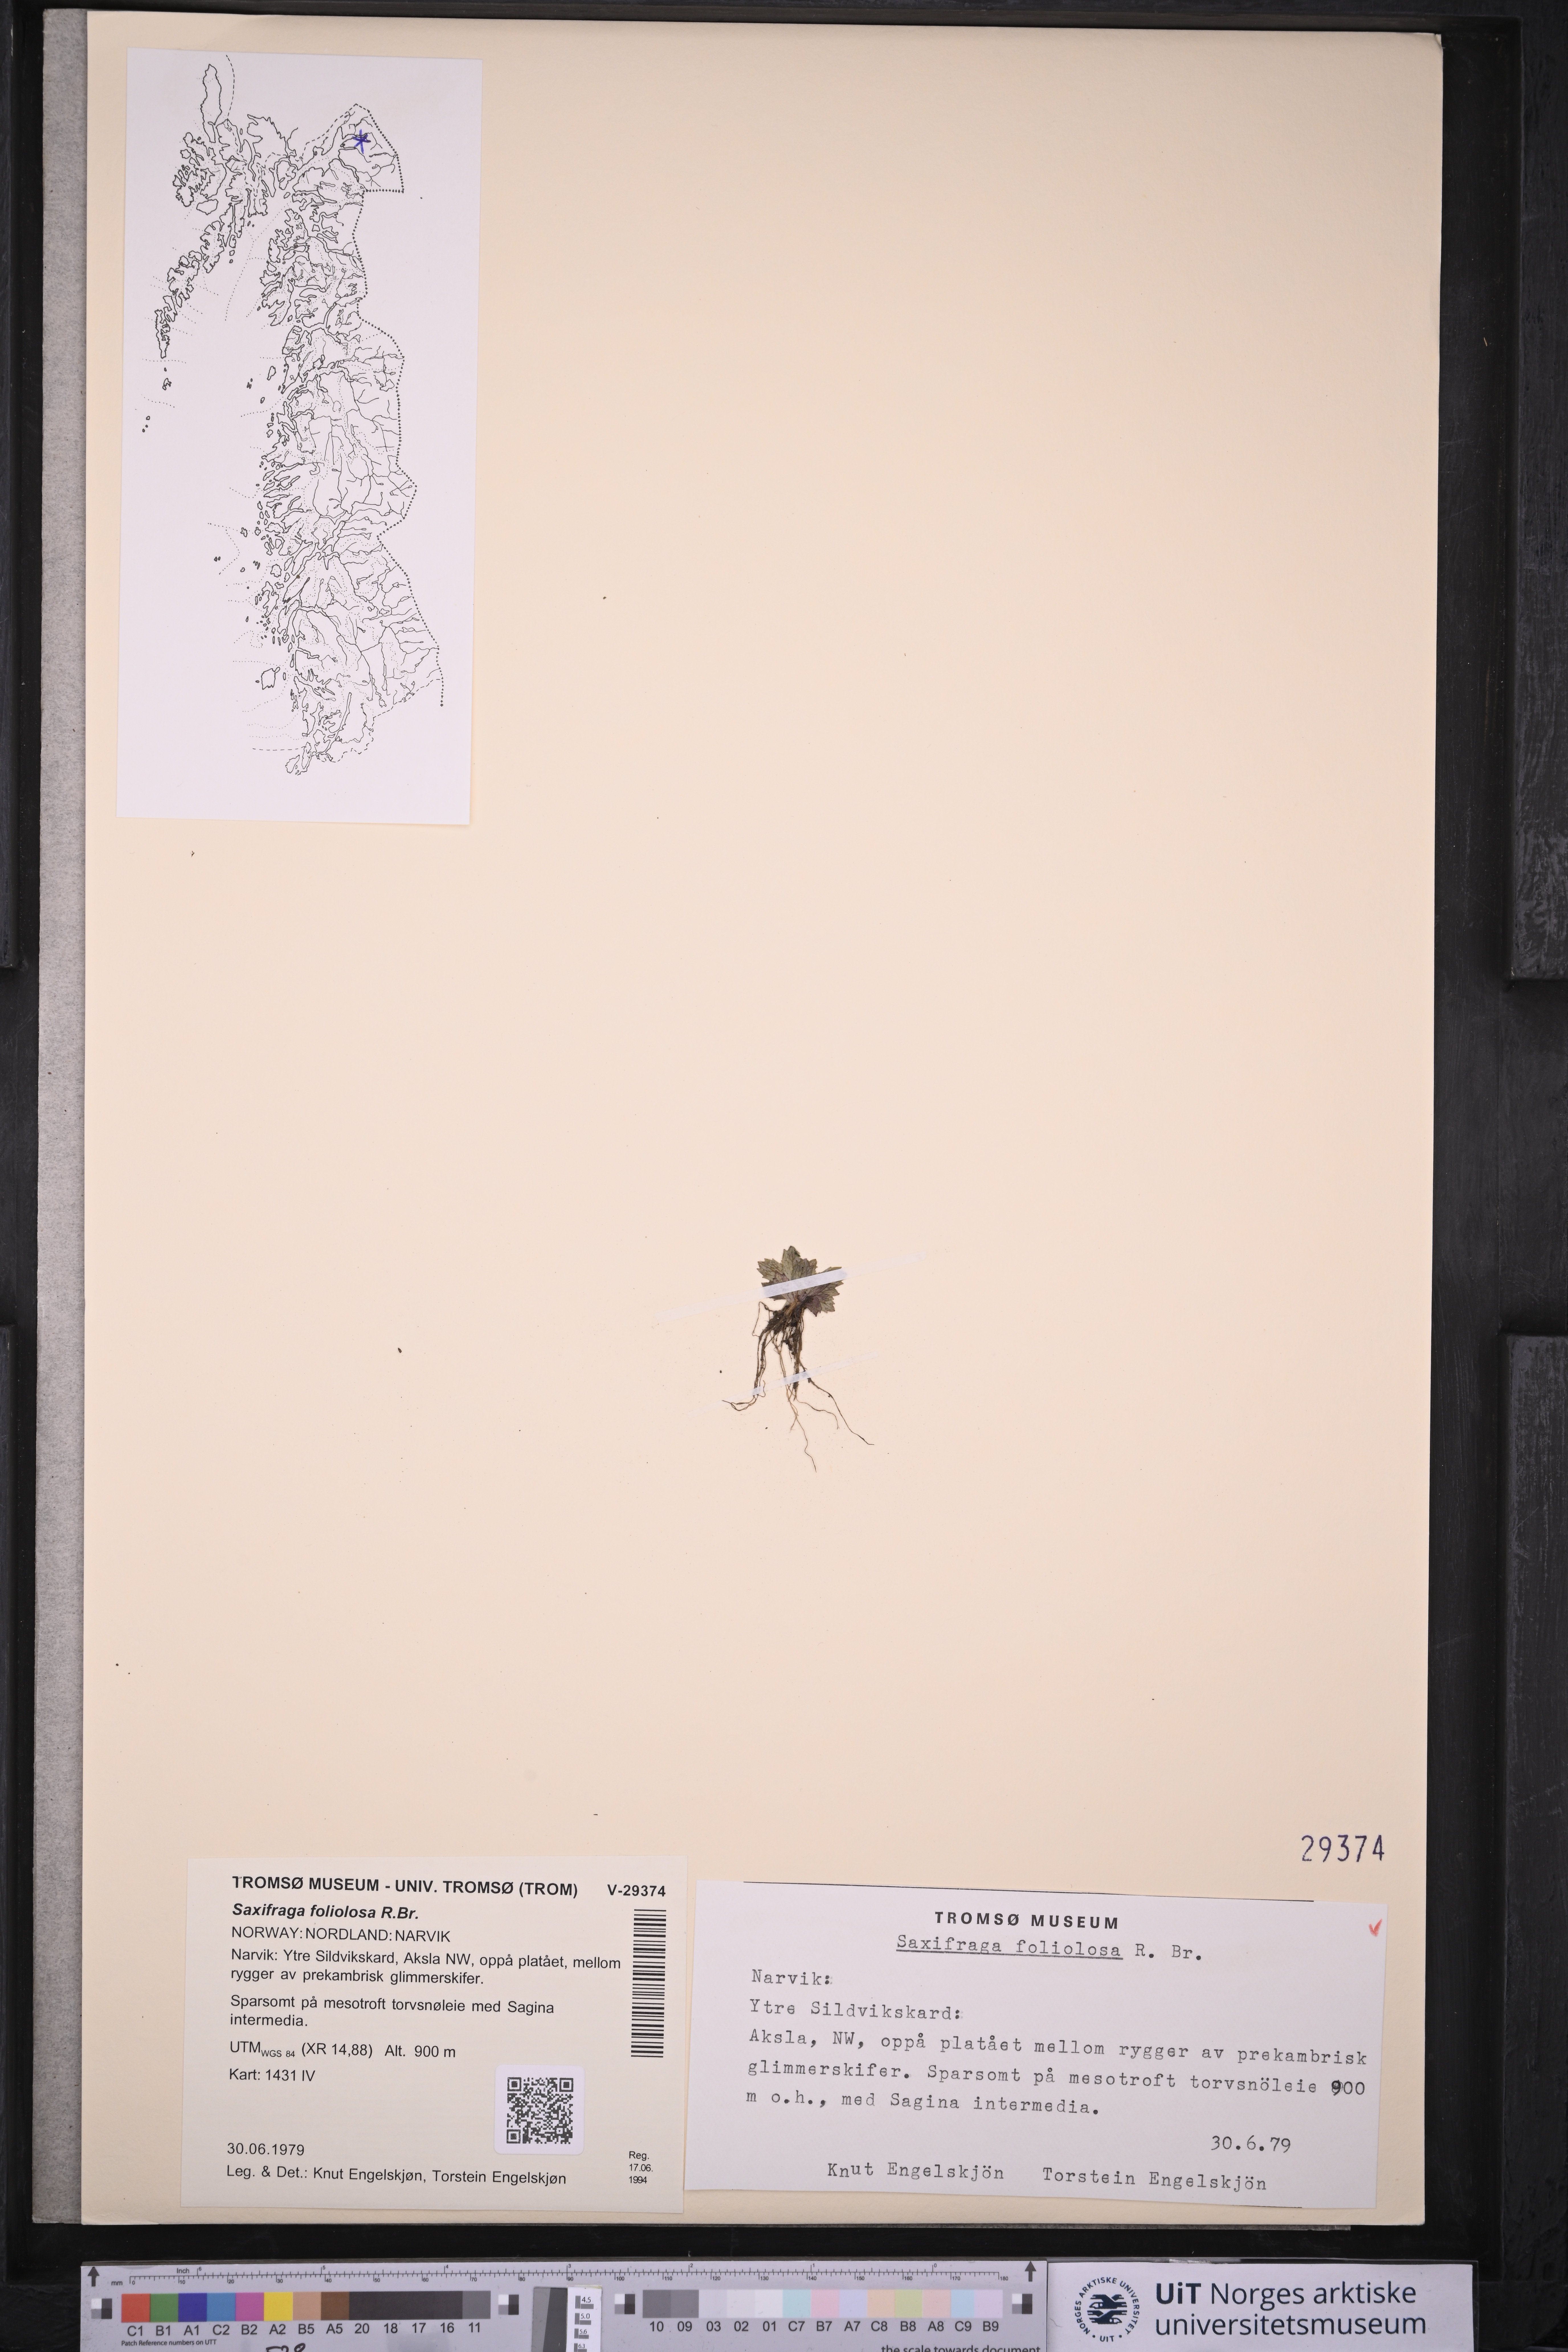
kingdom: Plantae
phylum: Tracheophyta
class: Magnoliopsida
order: Saxifragales
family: Saxifragaceae
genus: Micranthes
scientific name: Micranthes foliolosa
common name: Leafystem saxifrage
